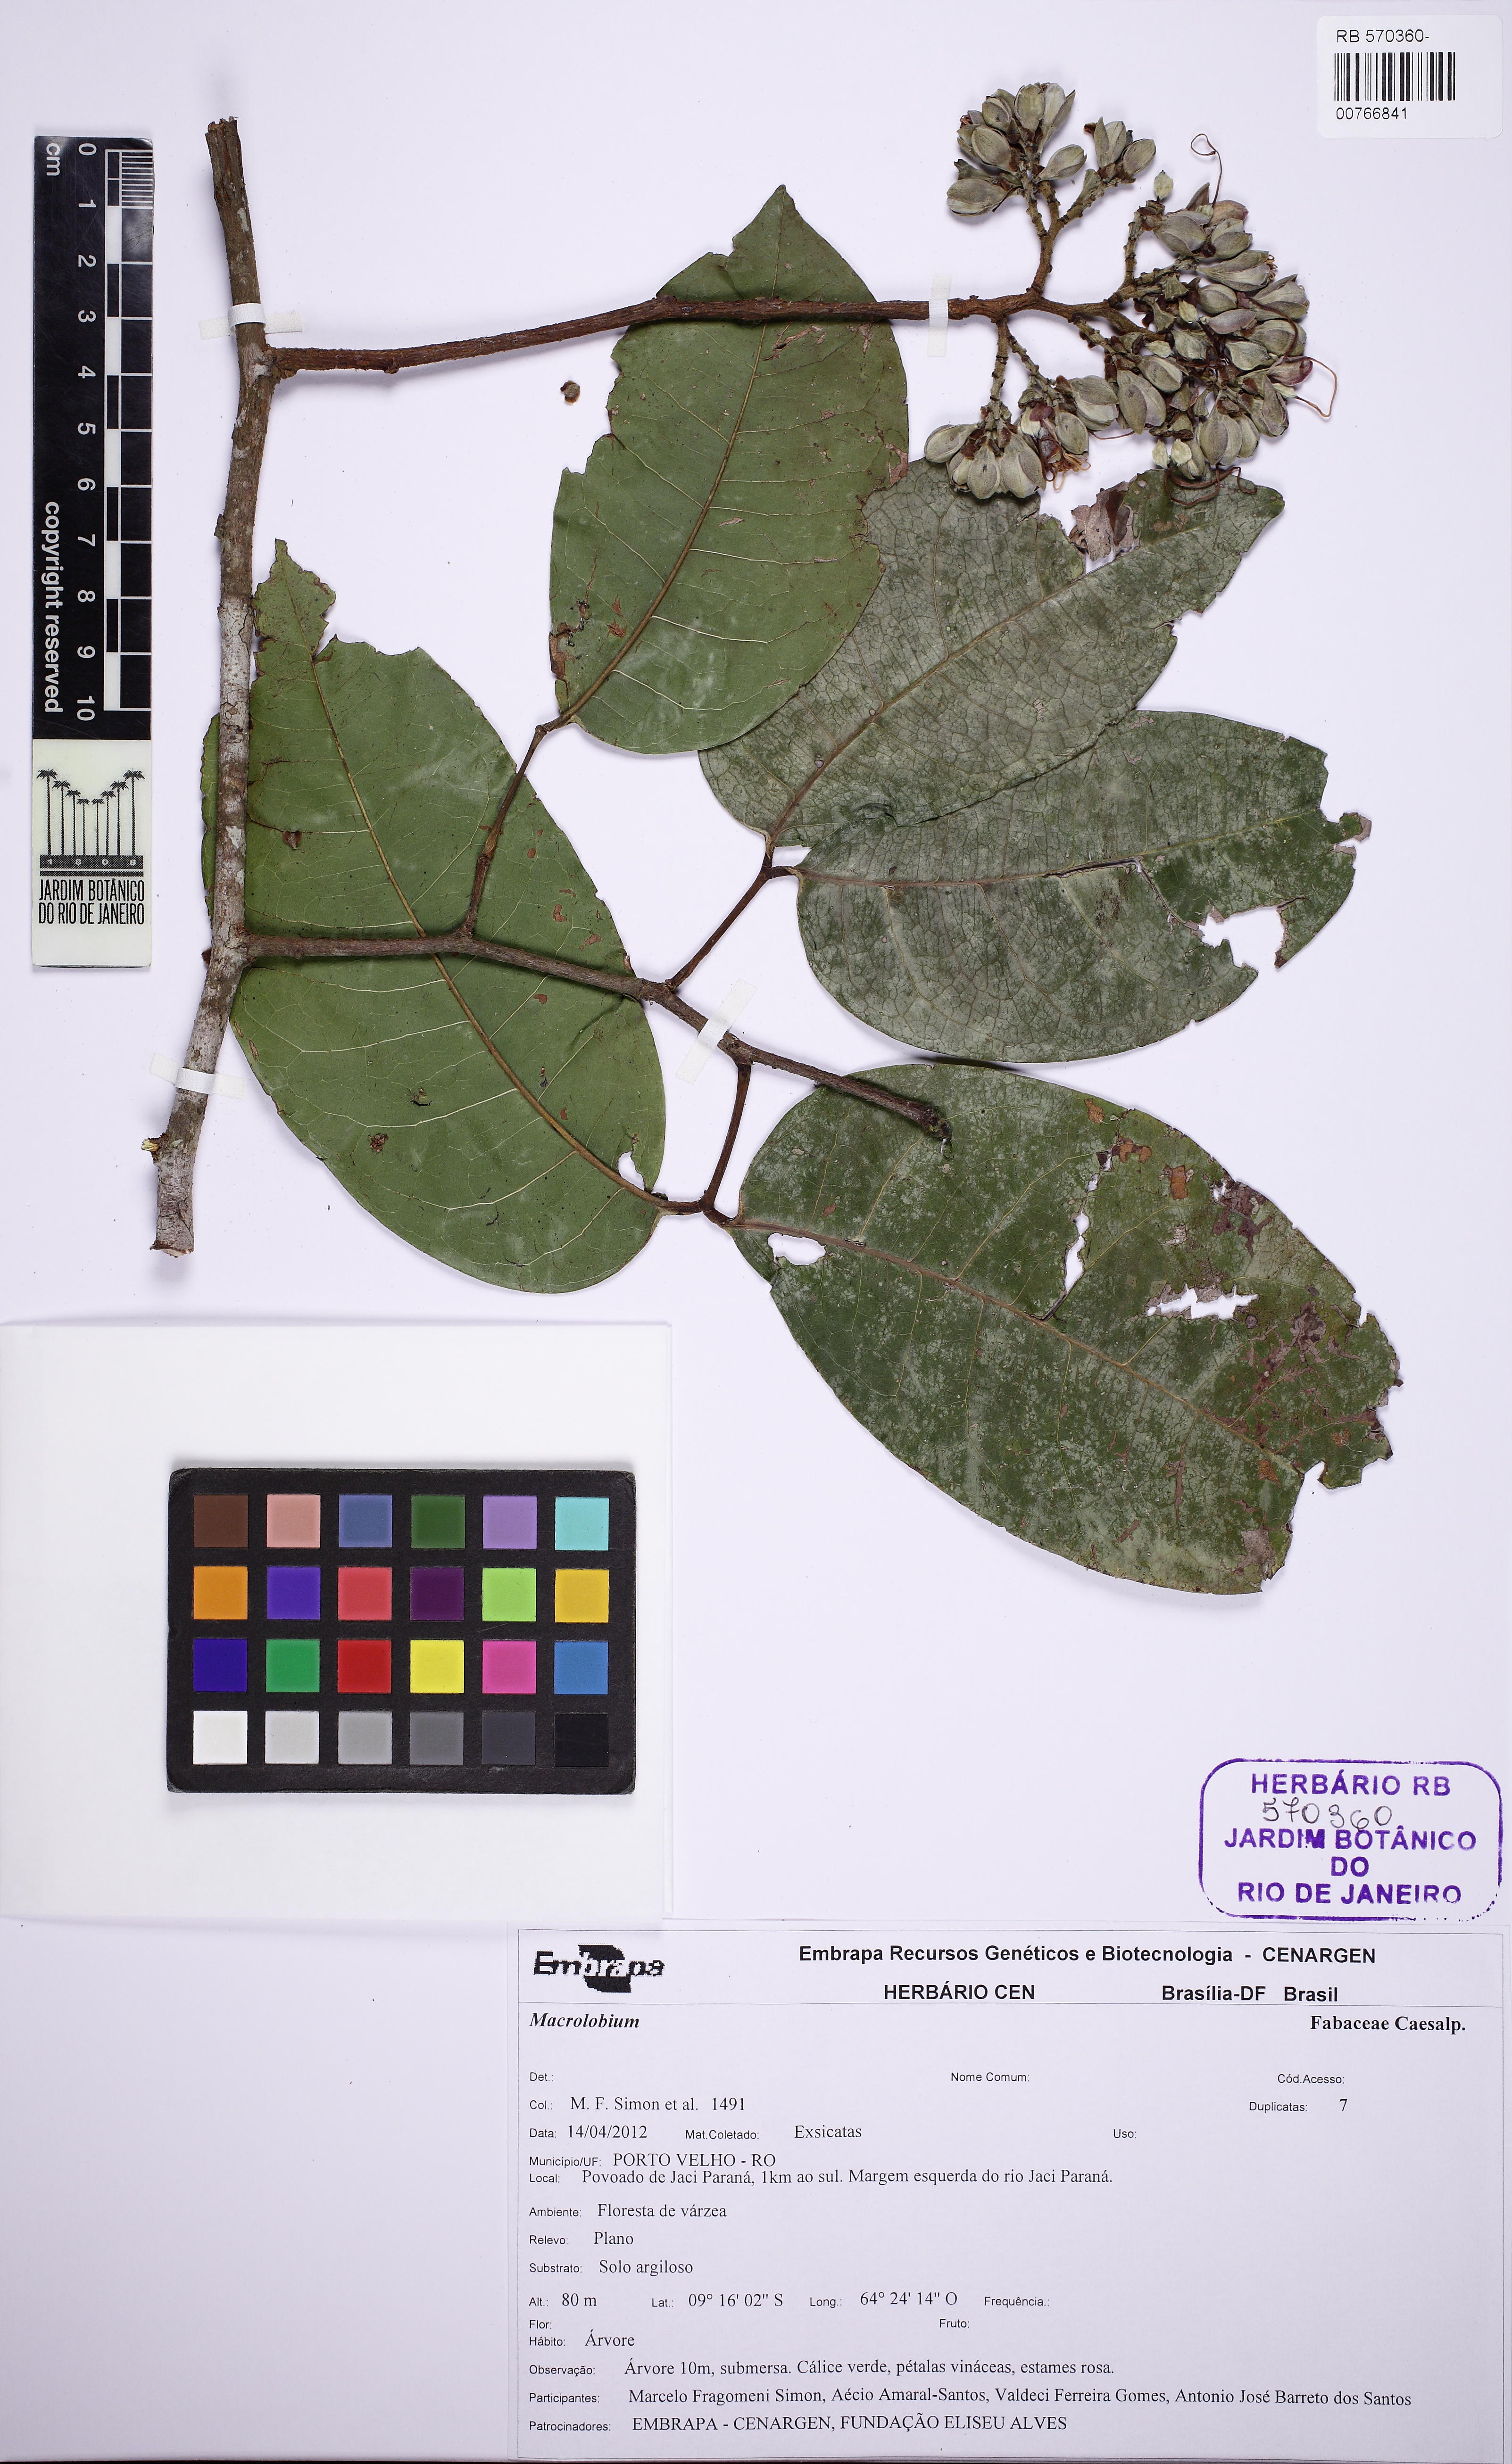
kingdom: Plantae
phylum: Tracheophyta
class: Magnoliopsida
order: Fabales
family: Fabaceae
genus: Peltogyne
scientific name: Peltogyne venosa
